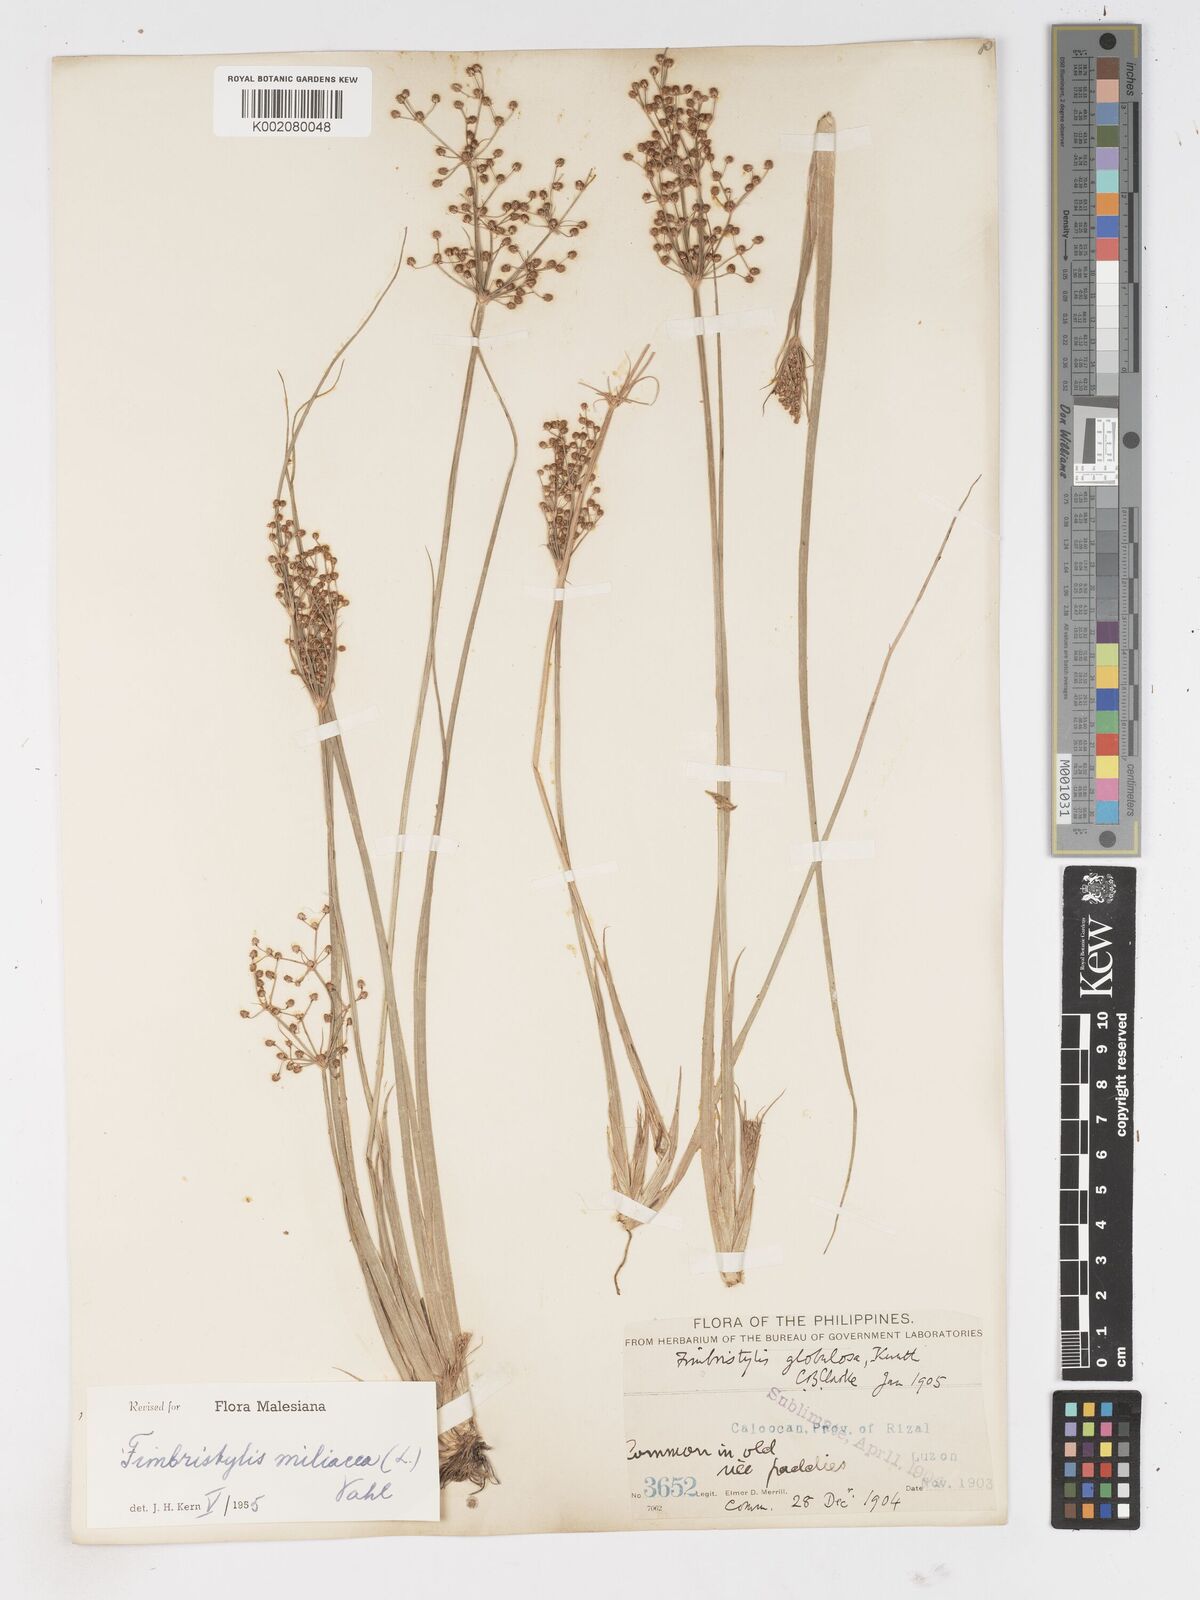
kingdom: Plantae
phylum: Tracheophyta
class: Liliopsida
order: Poales
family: Cyperaceae
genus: Fimbristylis
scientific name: Fimbristylis littoralis
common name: Fimbry
